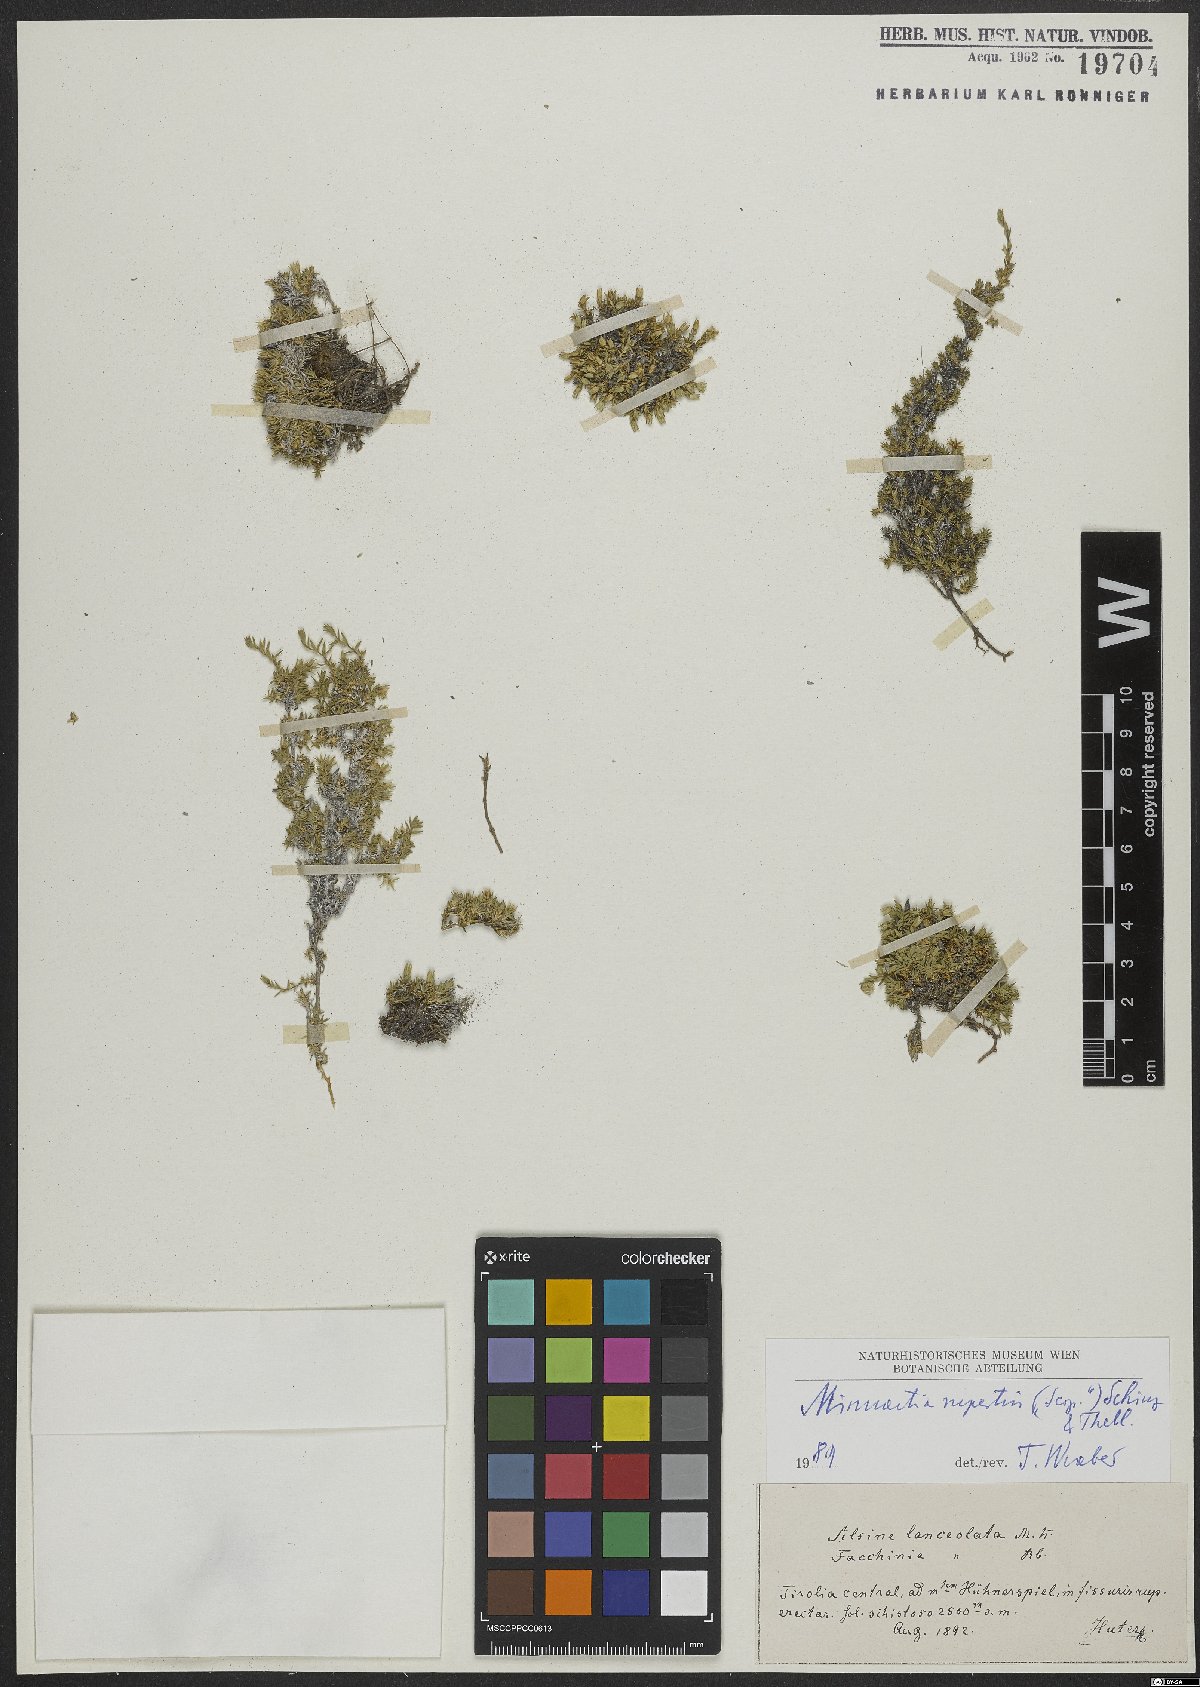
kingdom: Plantae
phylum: Tracheophyta
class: Magnoliopsida
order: Caryophyllales
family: Caryophyllaceae
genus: Facchinia
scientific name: Facchinia rupestris
